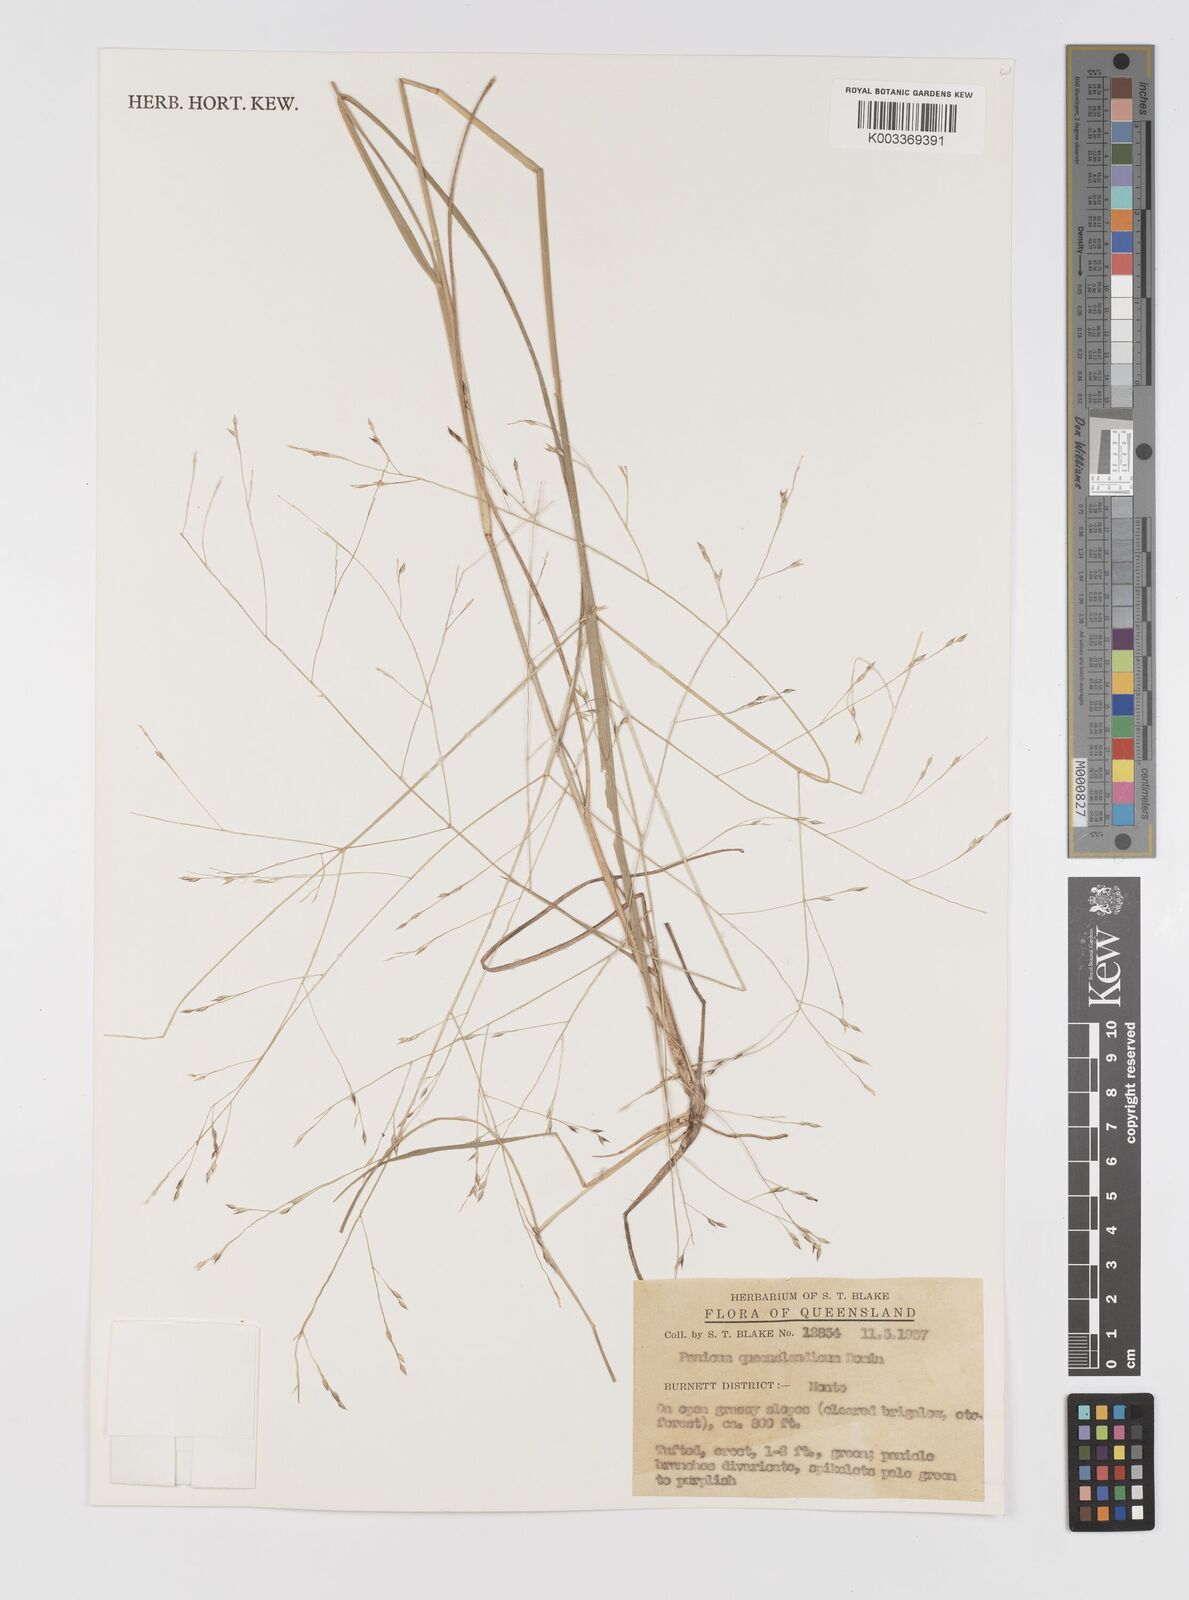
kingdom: Plantae
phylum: Tracheophyta
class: Liliopsida
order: Poales
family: Poaceae
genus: Panicum
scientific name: Panicum queenslandicum
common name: Yabila grass
